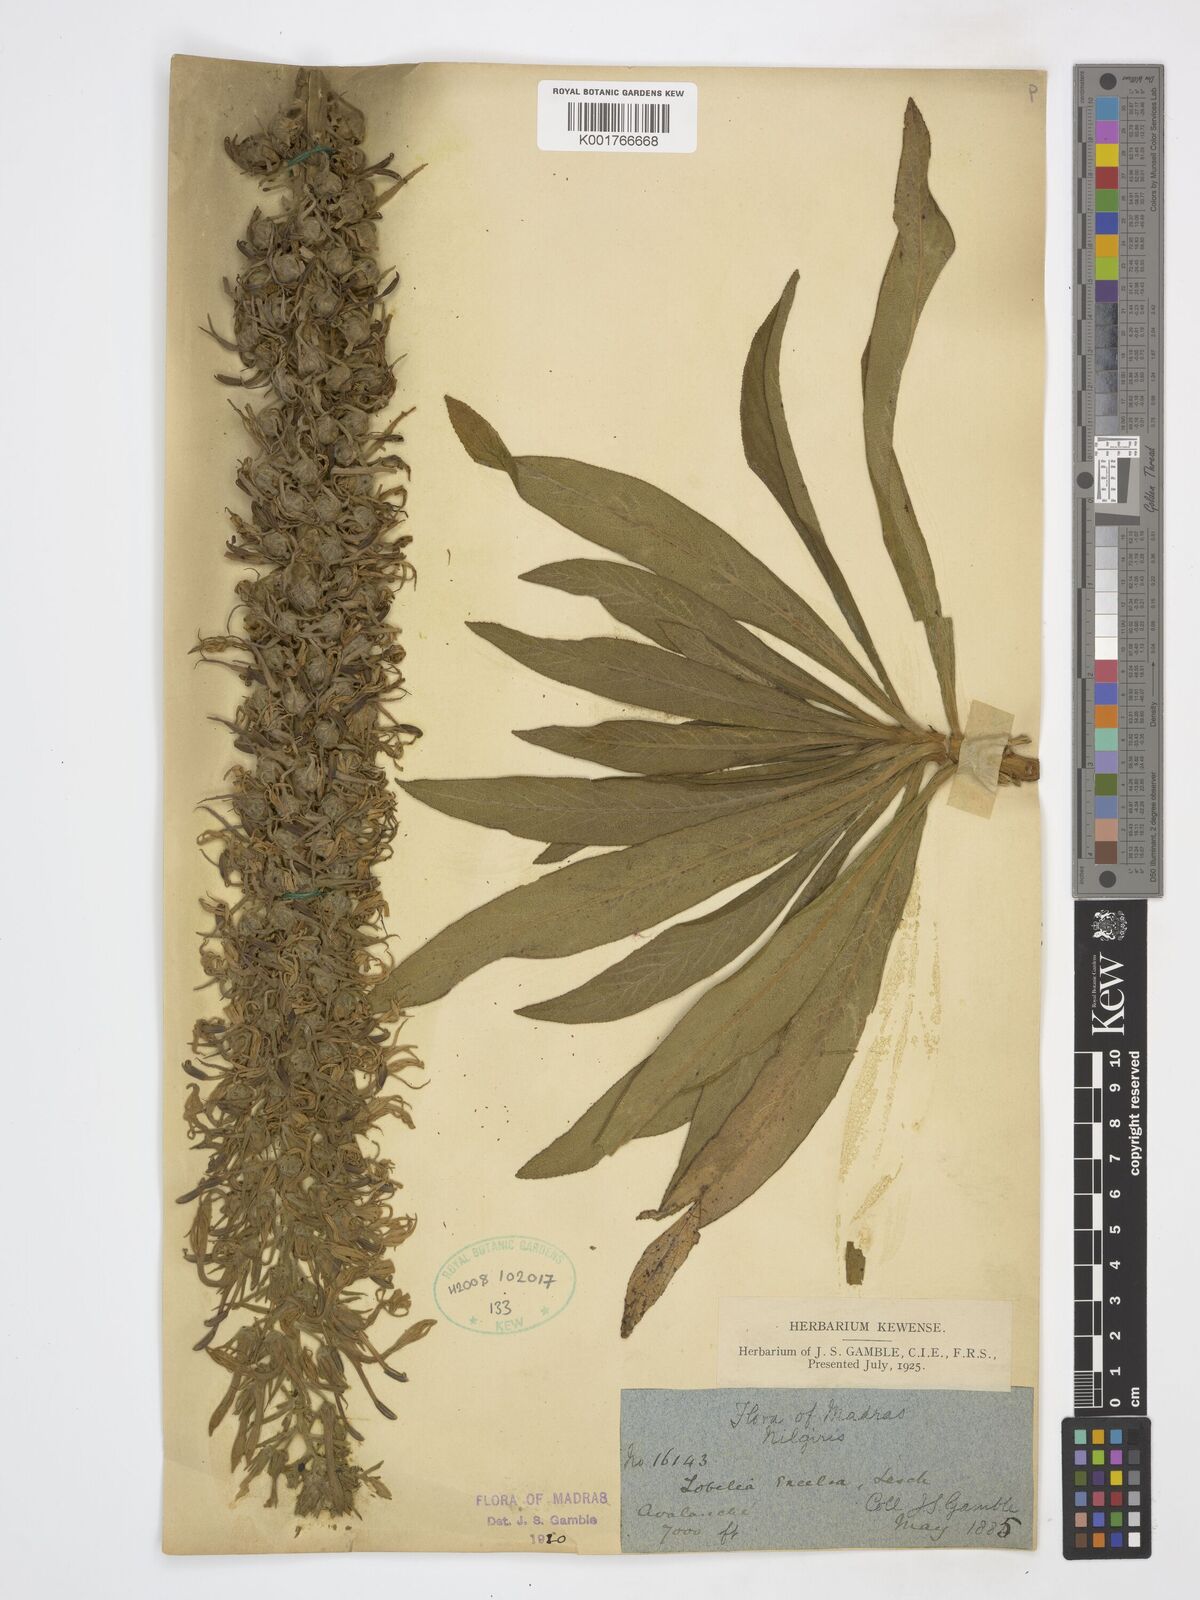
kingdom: Plantae
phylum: Tracheophyta
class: Magnoliopsida
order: Asterales
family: Campanulaceae
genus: Lobelia
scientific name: Lobelia excelsa
